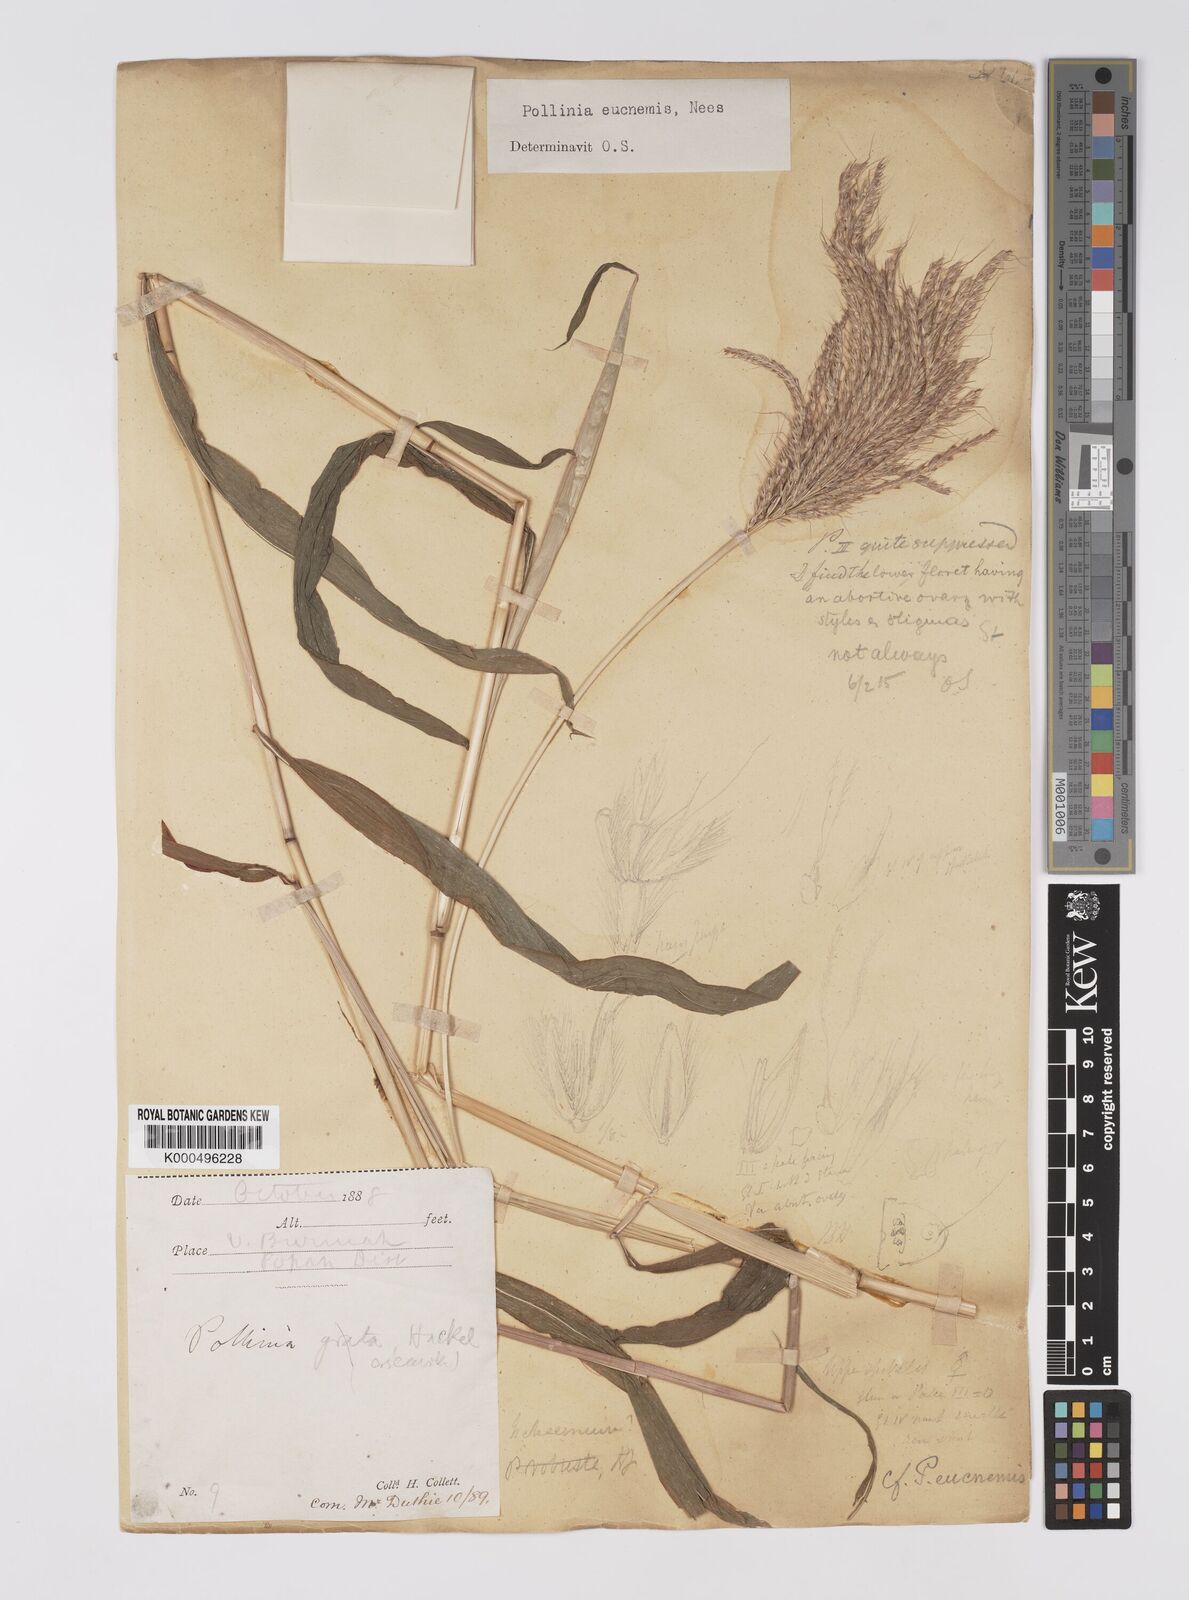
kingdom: Plantae
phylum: Tracheophyta
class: Liliopsida
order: Poales
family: Poaceae
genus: Microstegium
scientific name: Microstegium eucnemis
